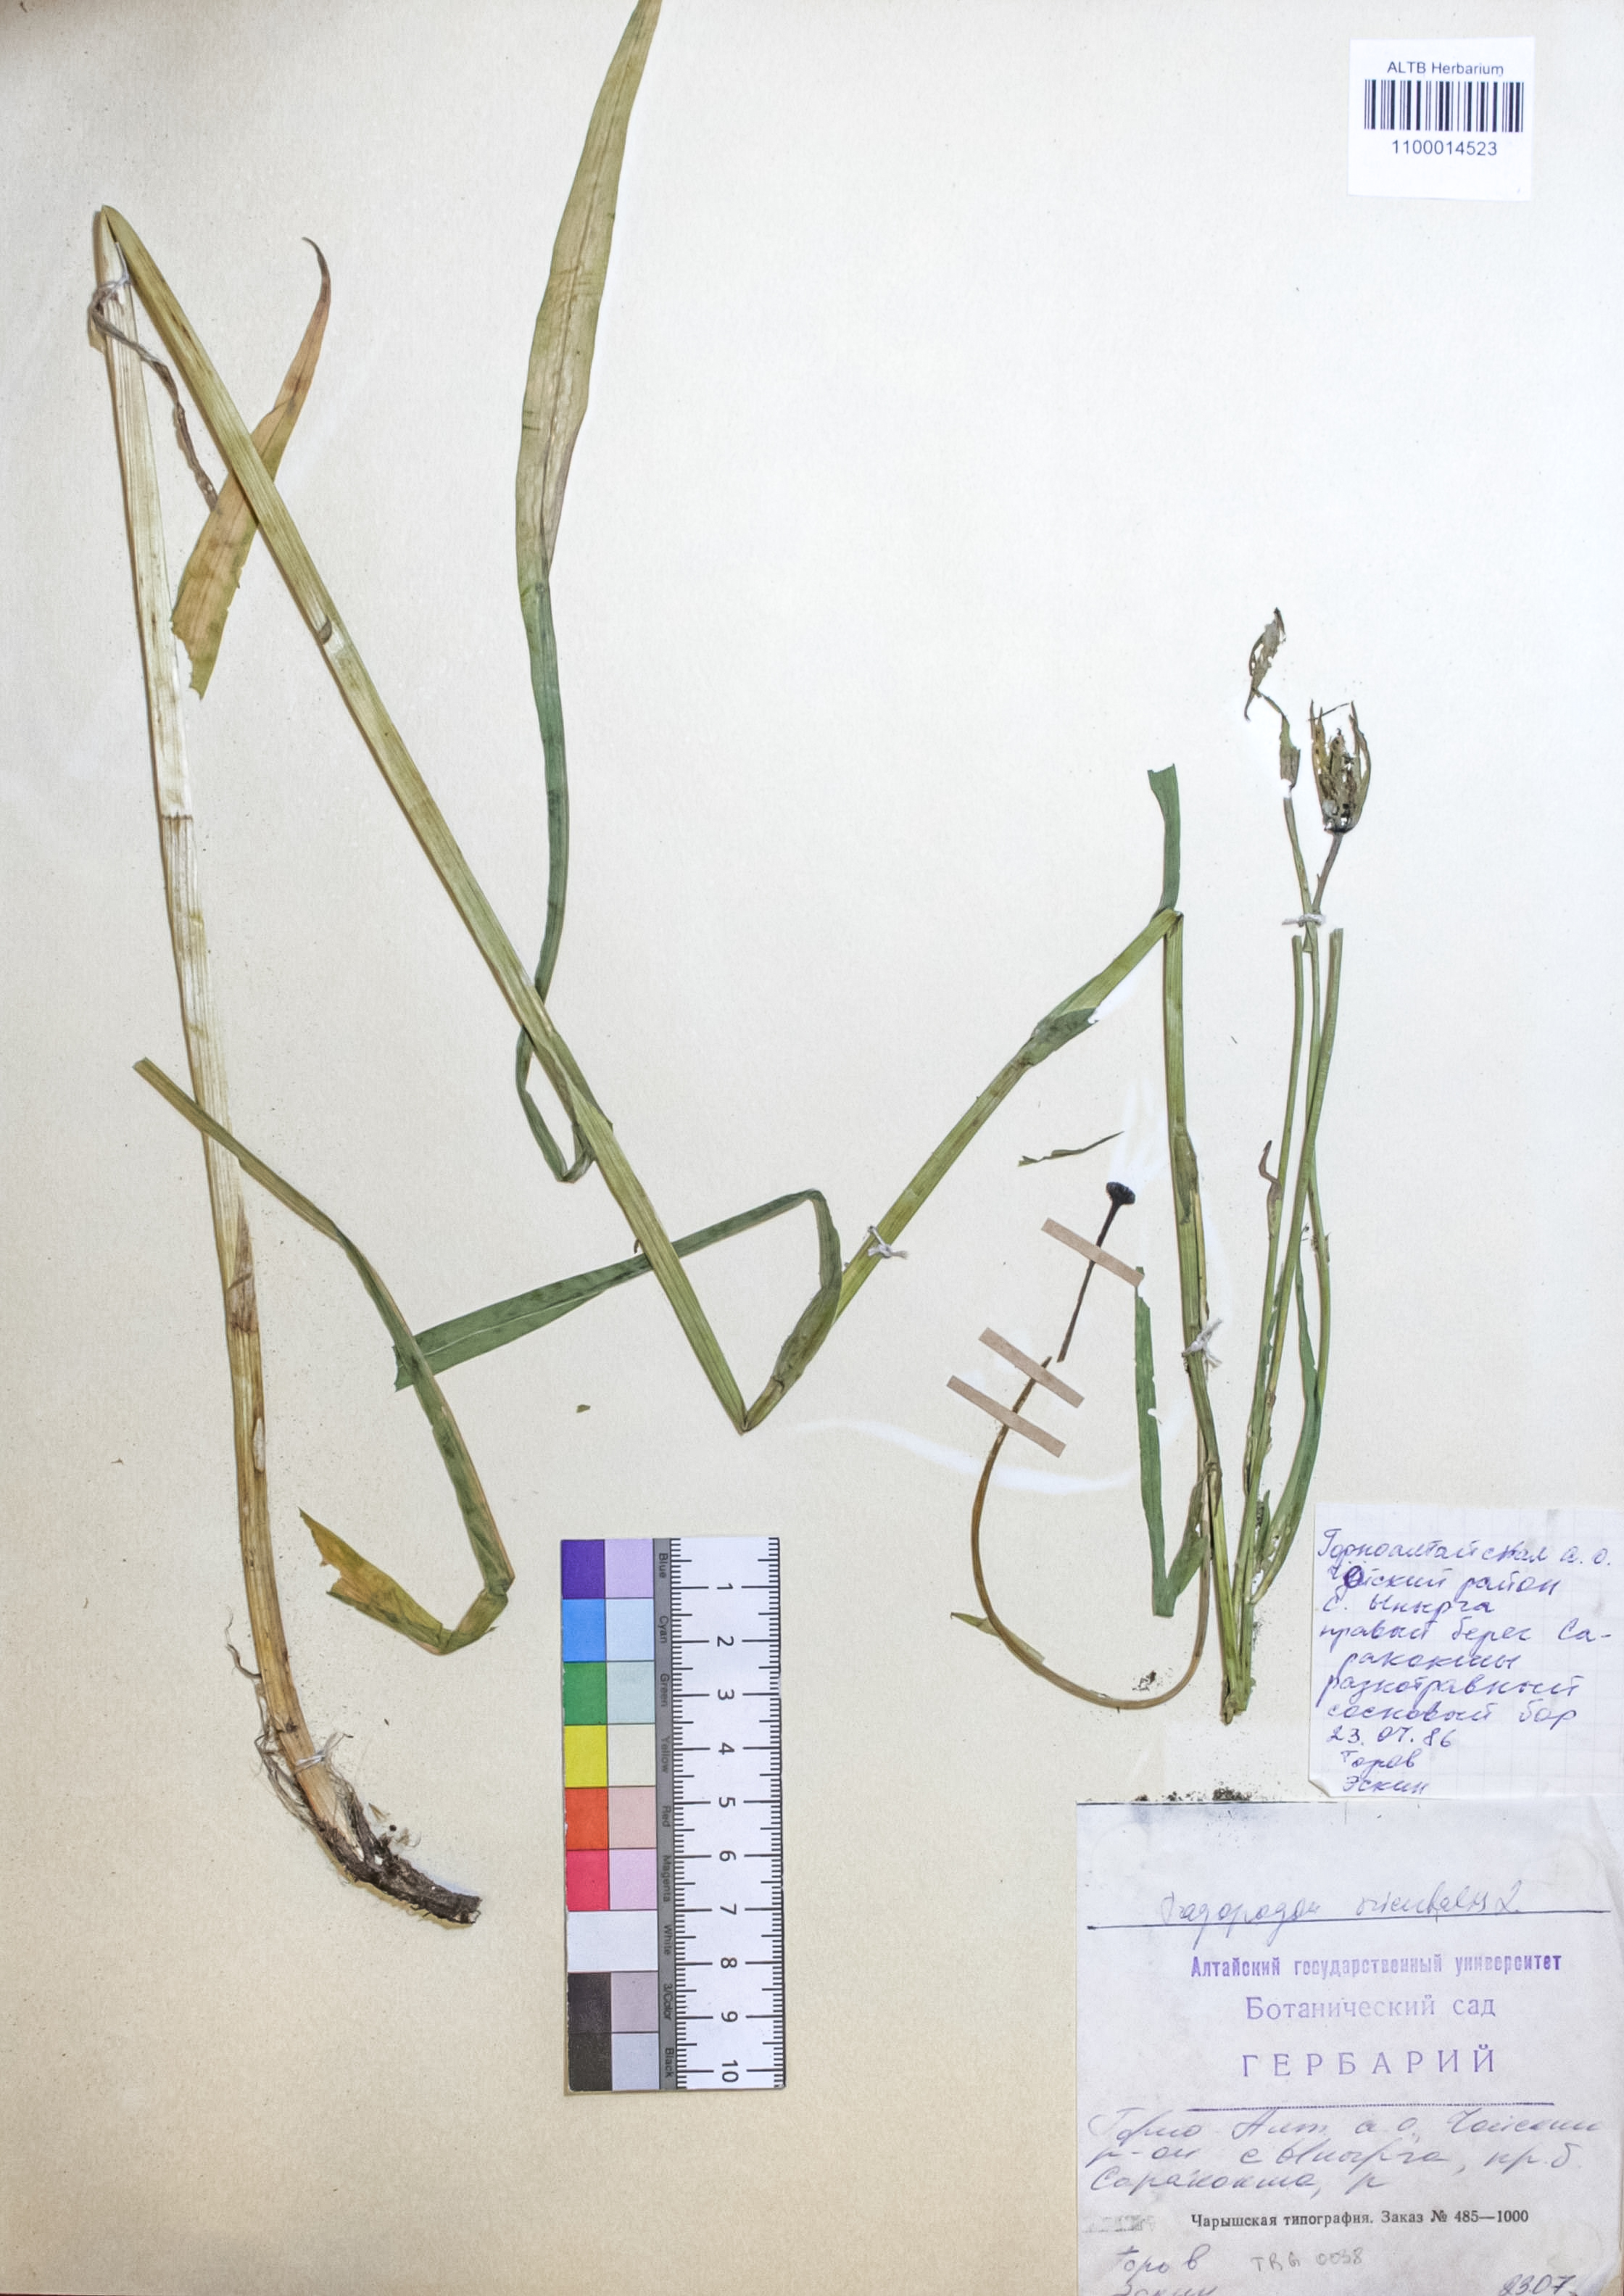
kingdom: Plantae
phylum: Tracheophyta
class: Magnoliopsida
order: Asterales
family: Asteraceae
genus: Tragopogon
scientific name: Tragopogon orientalis
